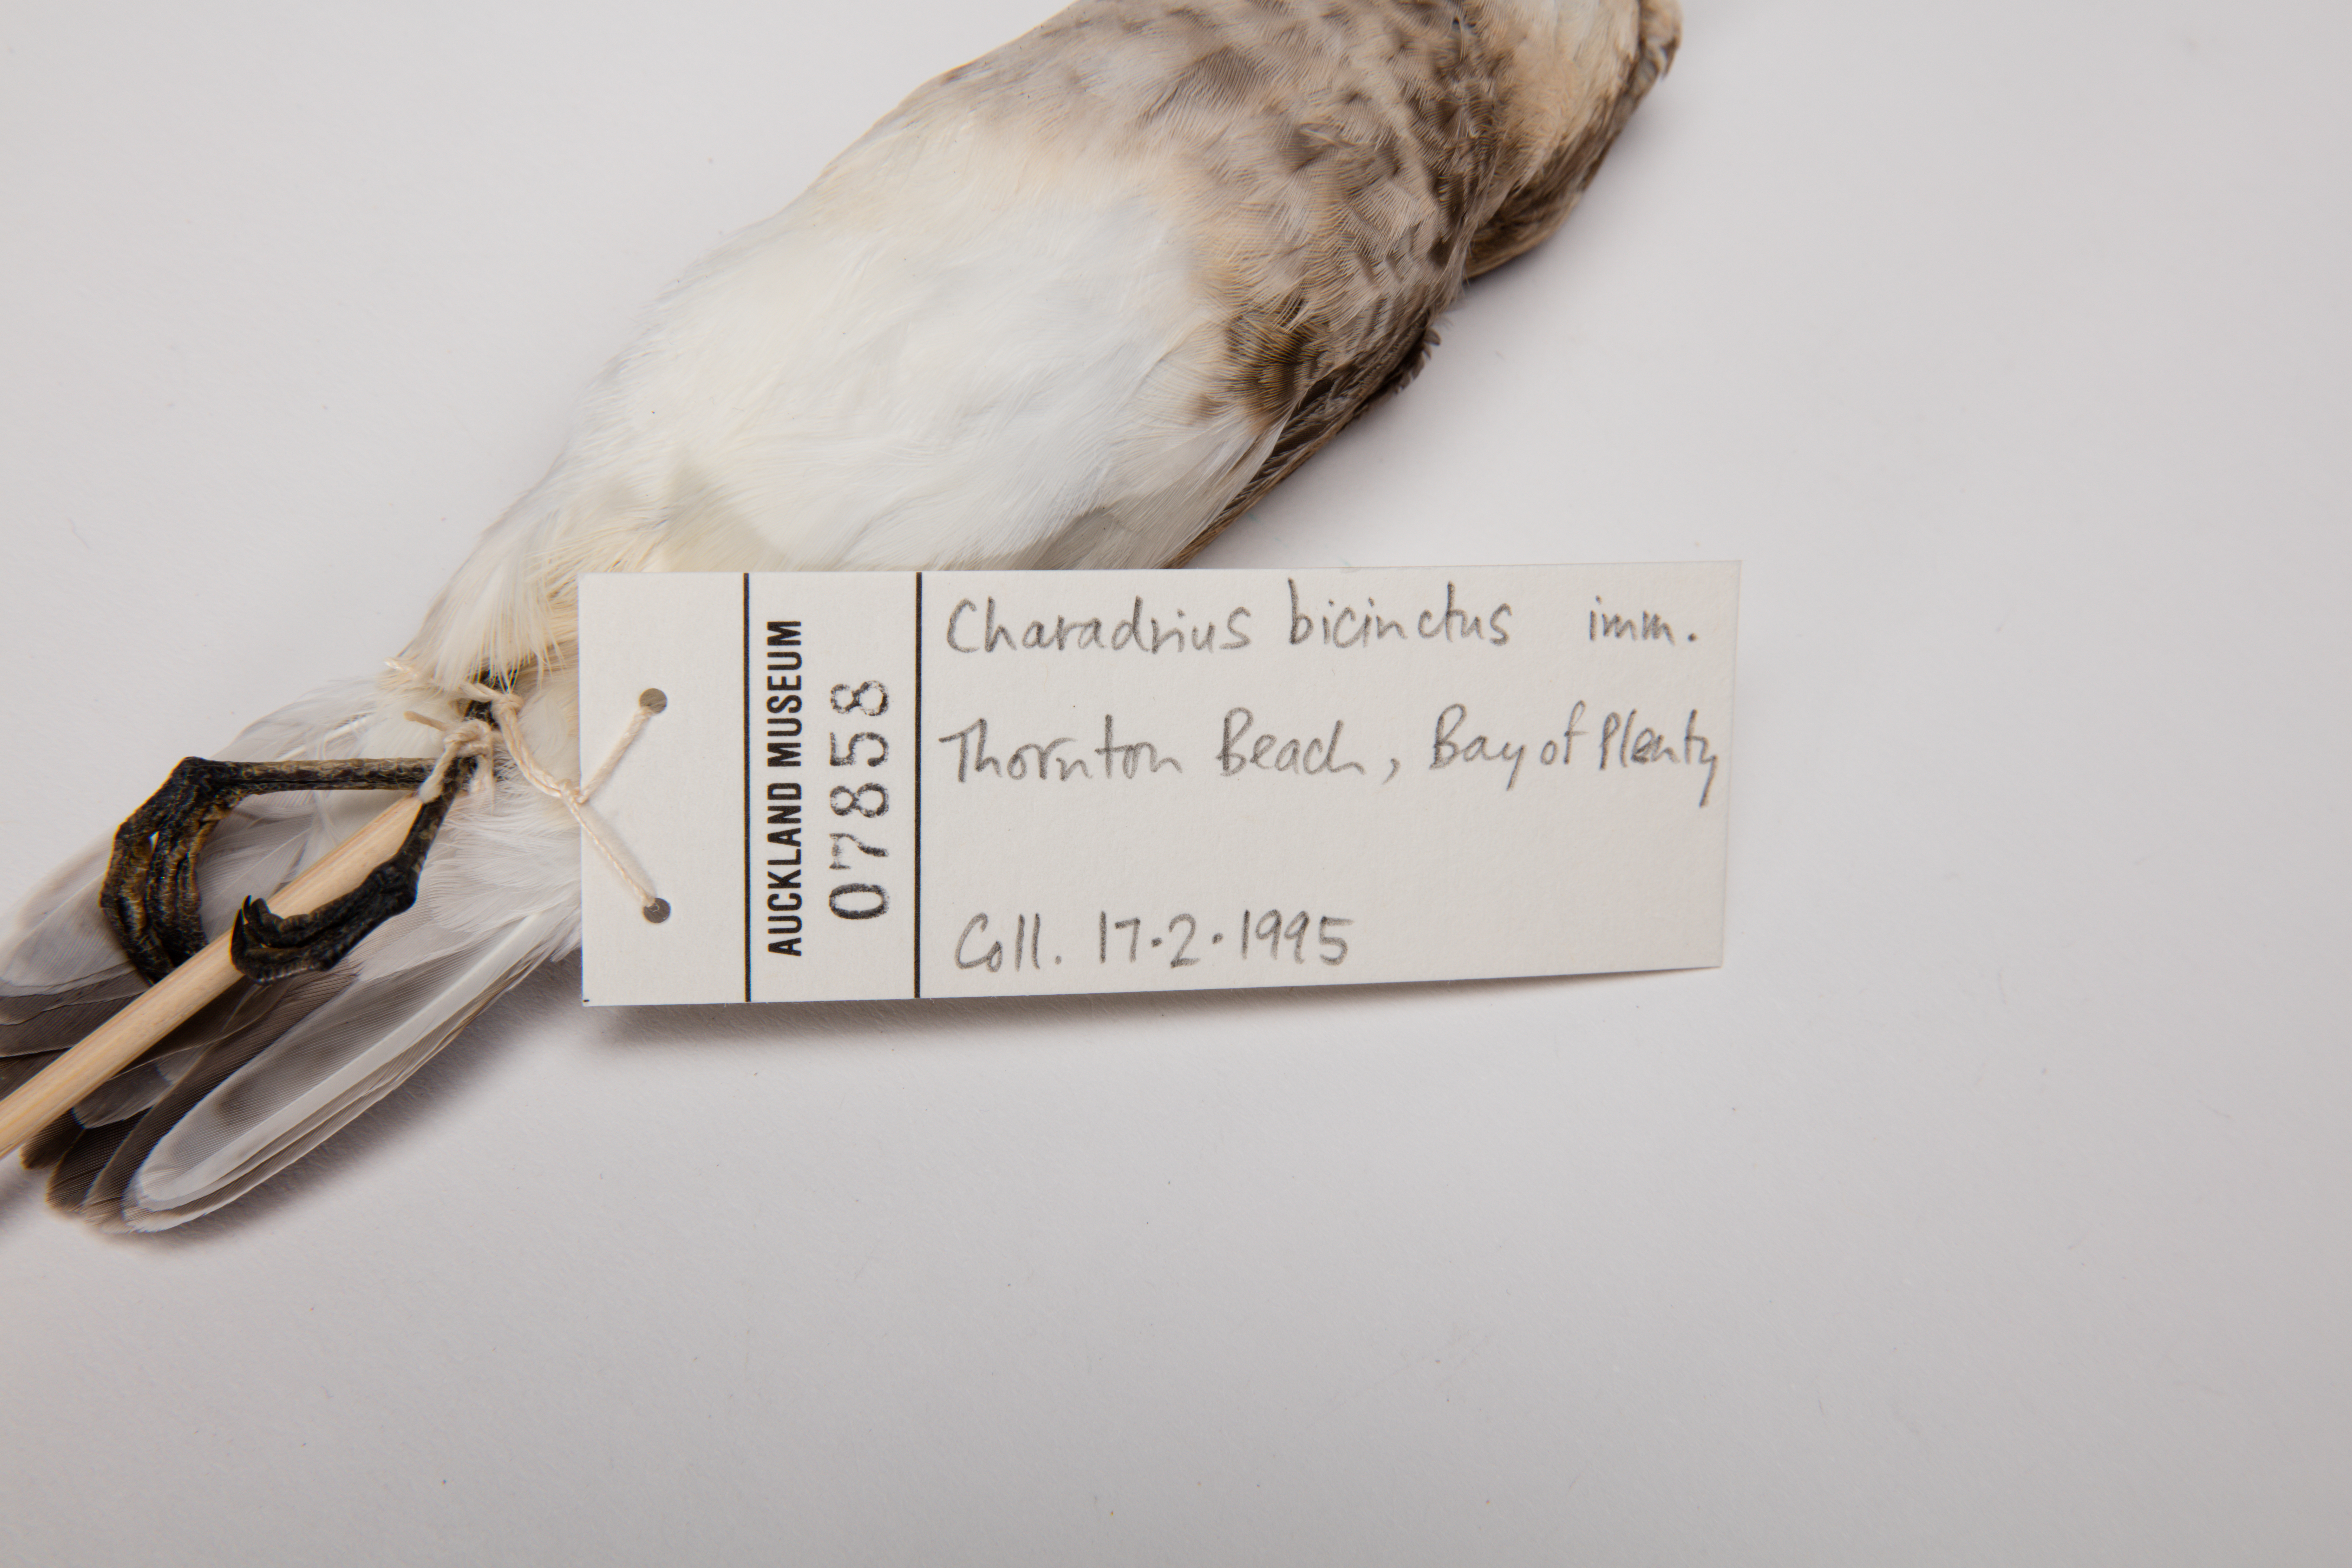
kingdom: Animalia
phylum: Chordata
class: Aves
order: Charadriiformes
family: Charadriidae
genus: Charadrius
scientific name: Charadrius bicinctus
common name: Double-banded plover
